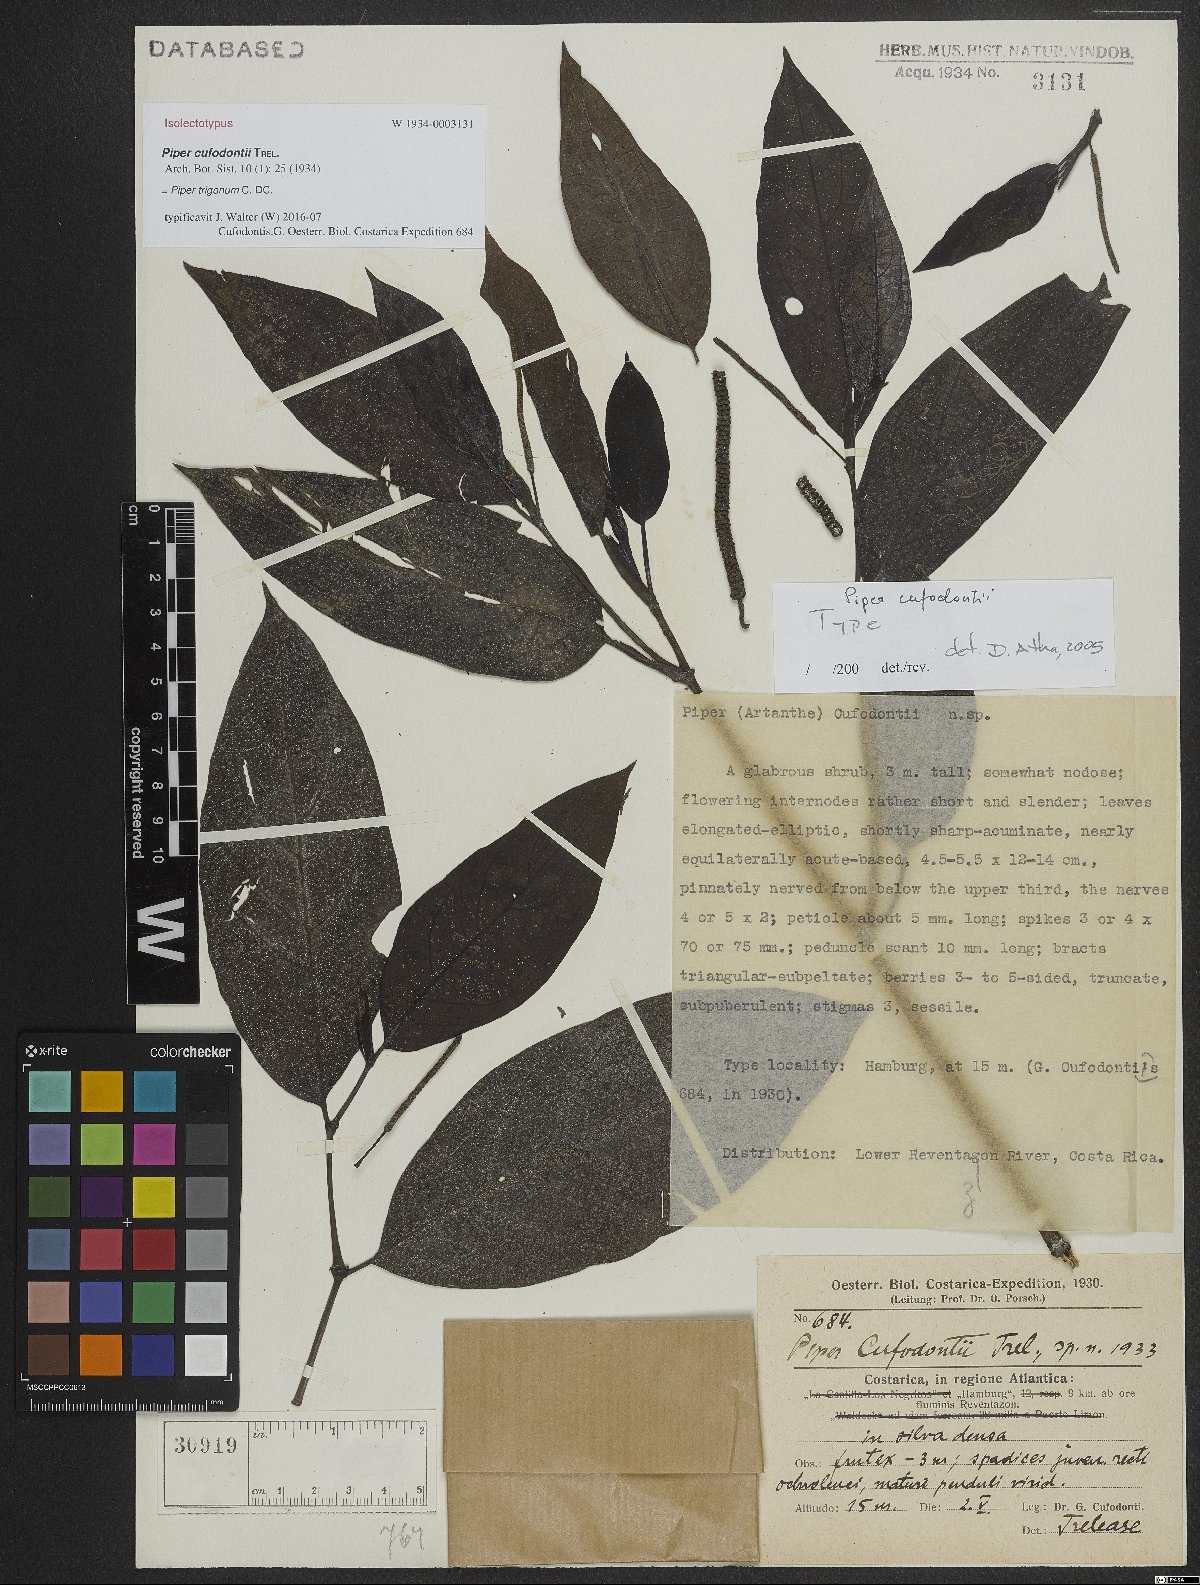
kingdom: Plantae
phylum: Tracheophyta
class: Magnoliopsida
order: Piperales
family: Piperaceae
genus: Piper
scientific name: Piper trigonum
